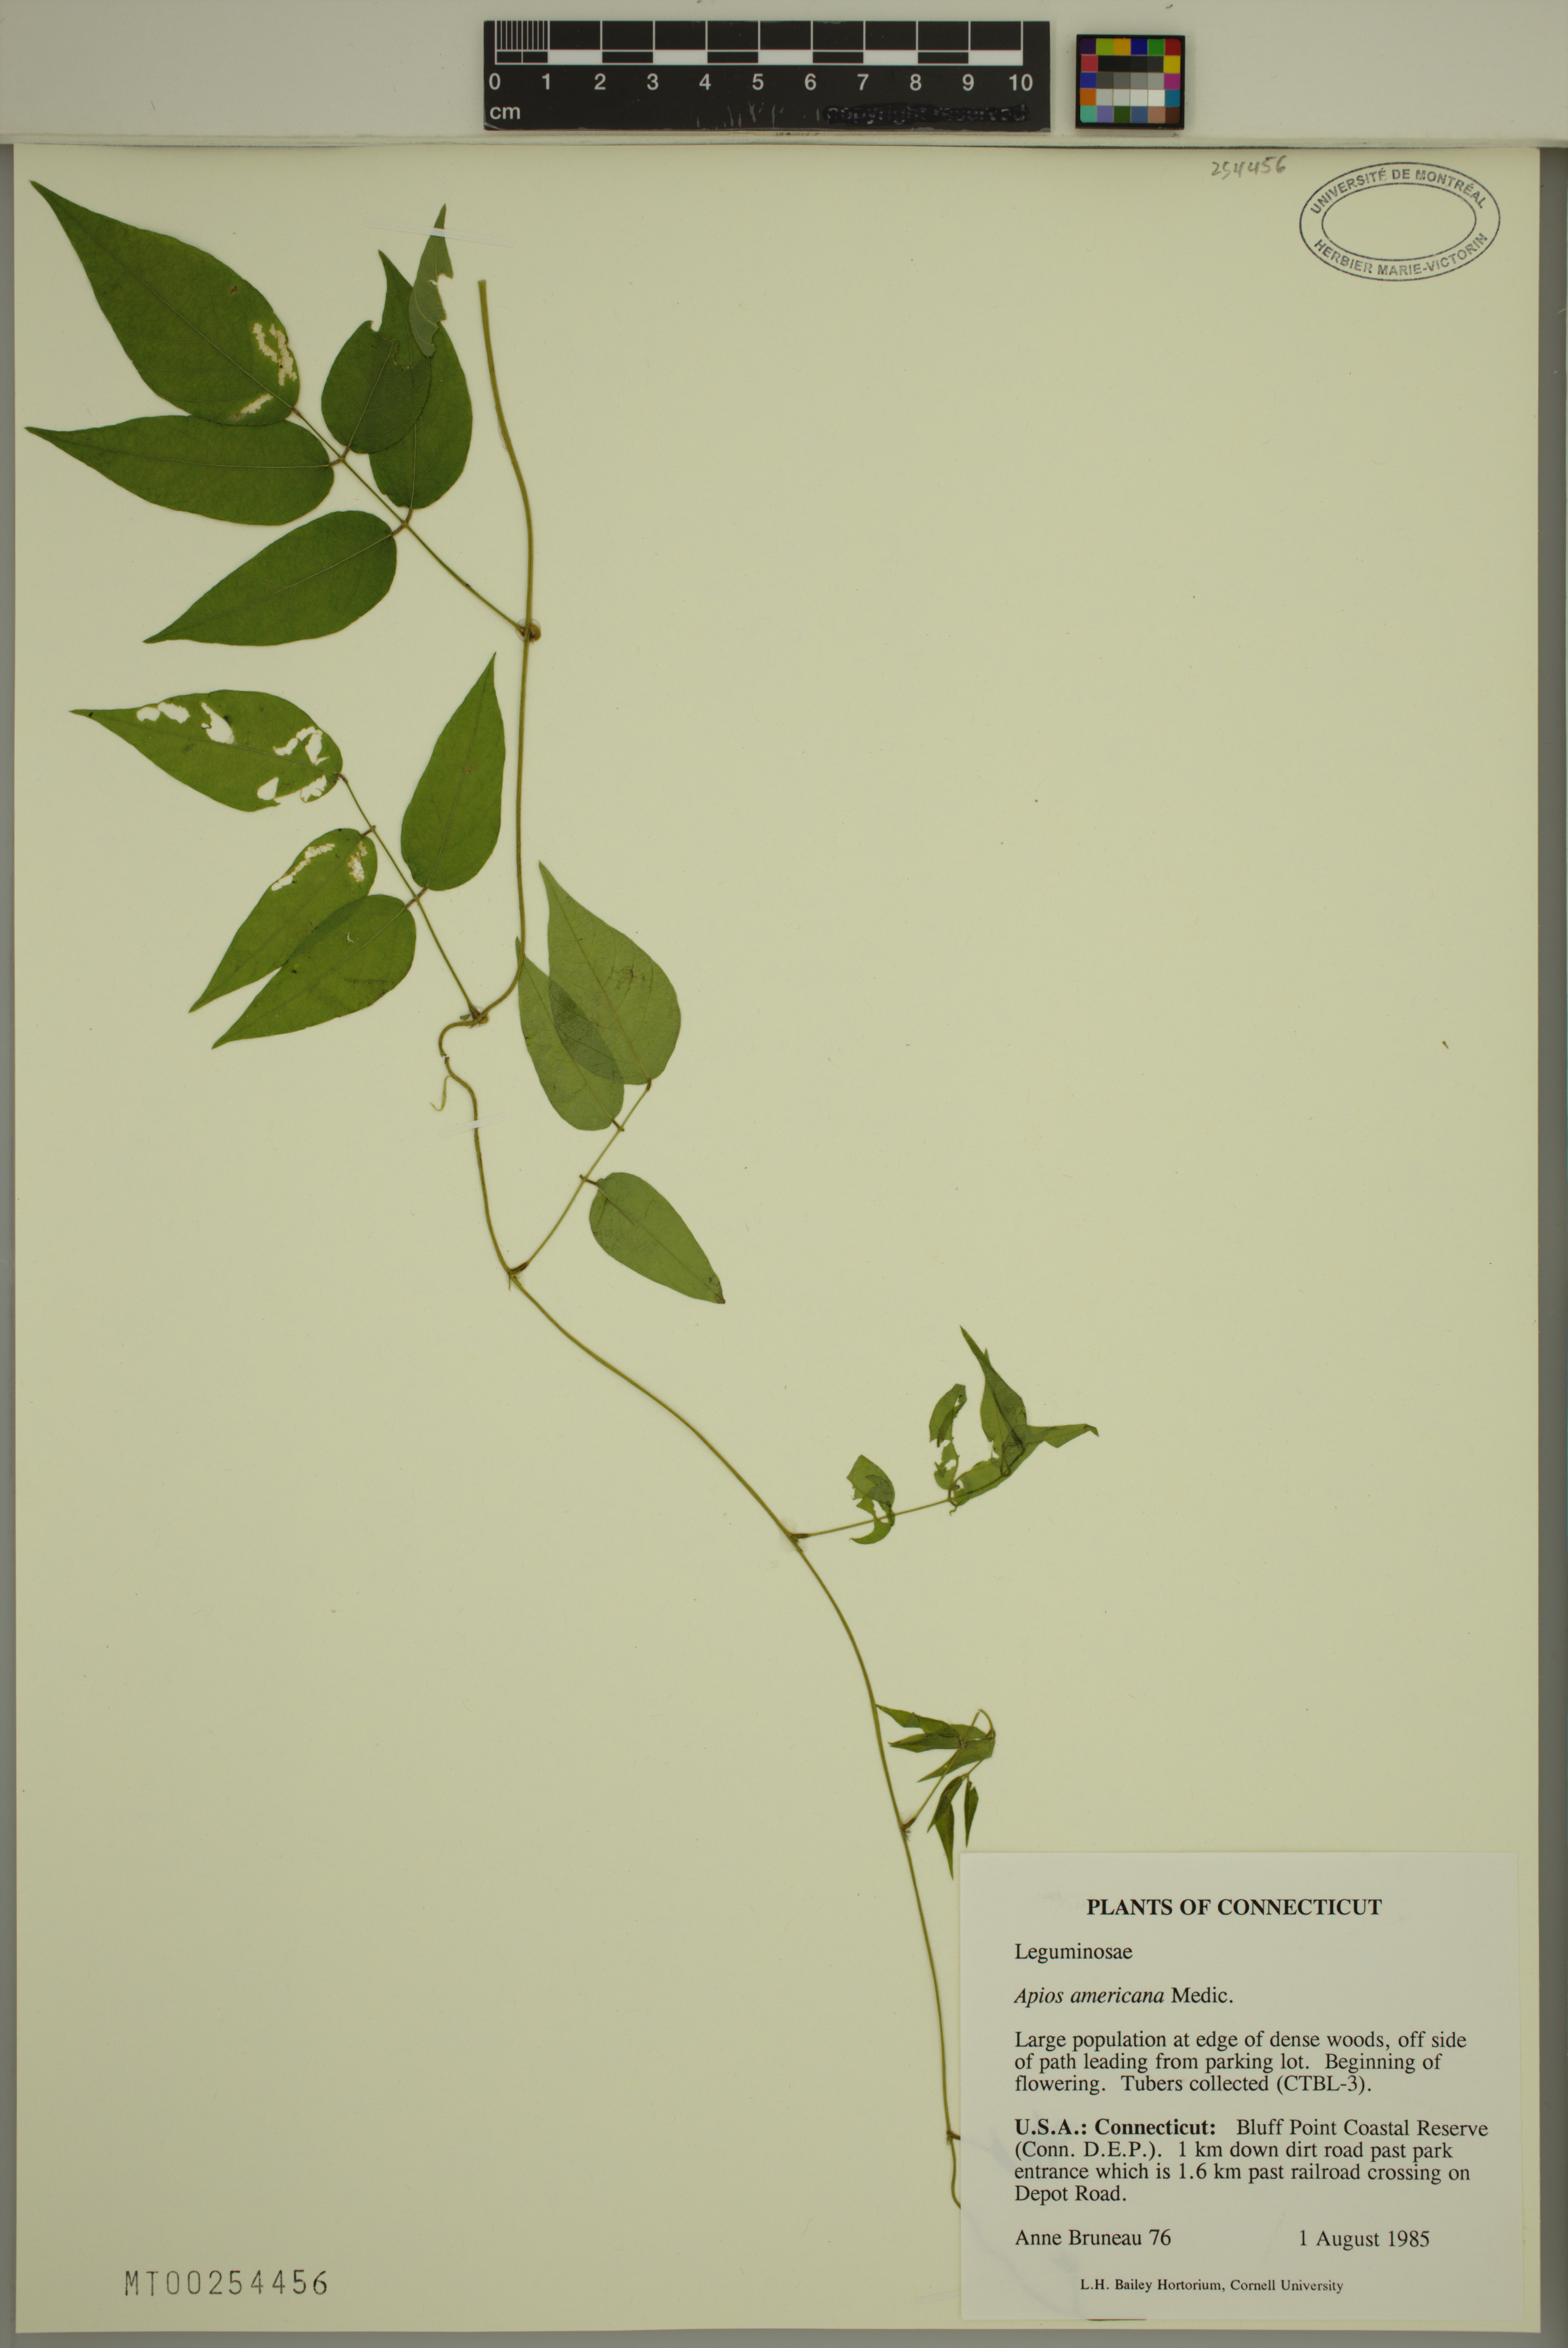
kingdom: Plantae
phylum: Tracheophyta
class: Magnoliopsida
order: Fabales
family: Fabaceae
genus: Apios
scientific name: Apios americana
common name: American potato-bean
